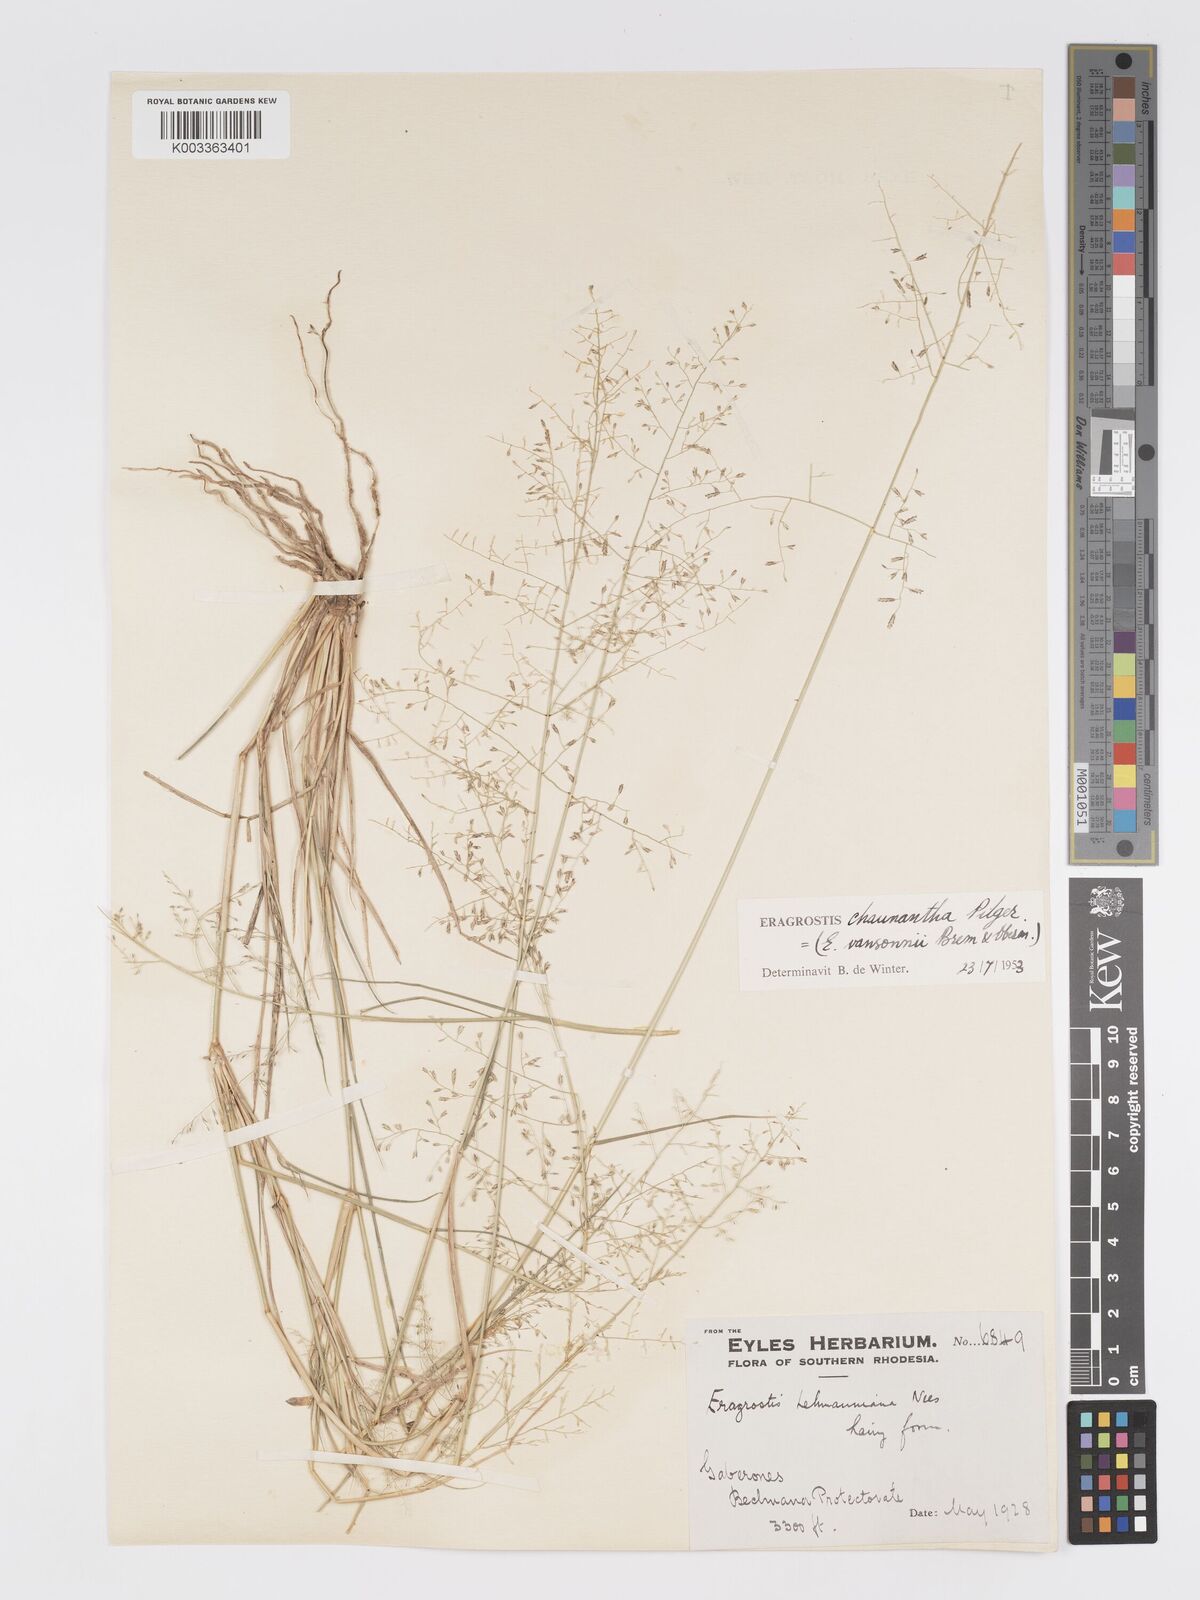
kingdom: Plantae
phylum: Tracheophyta
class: Liliopsida
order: Poales
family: Poaceae
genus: Eragrostis
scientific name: Eragrostis lehmanniana
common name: Lehmann lovegrass
